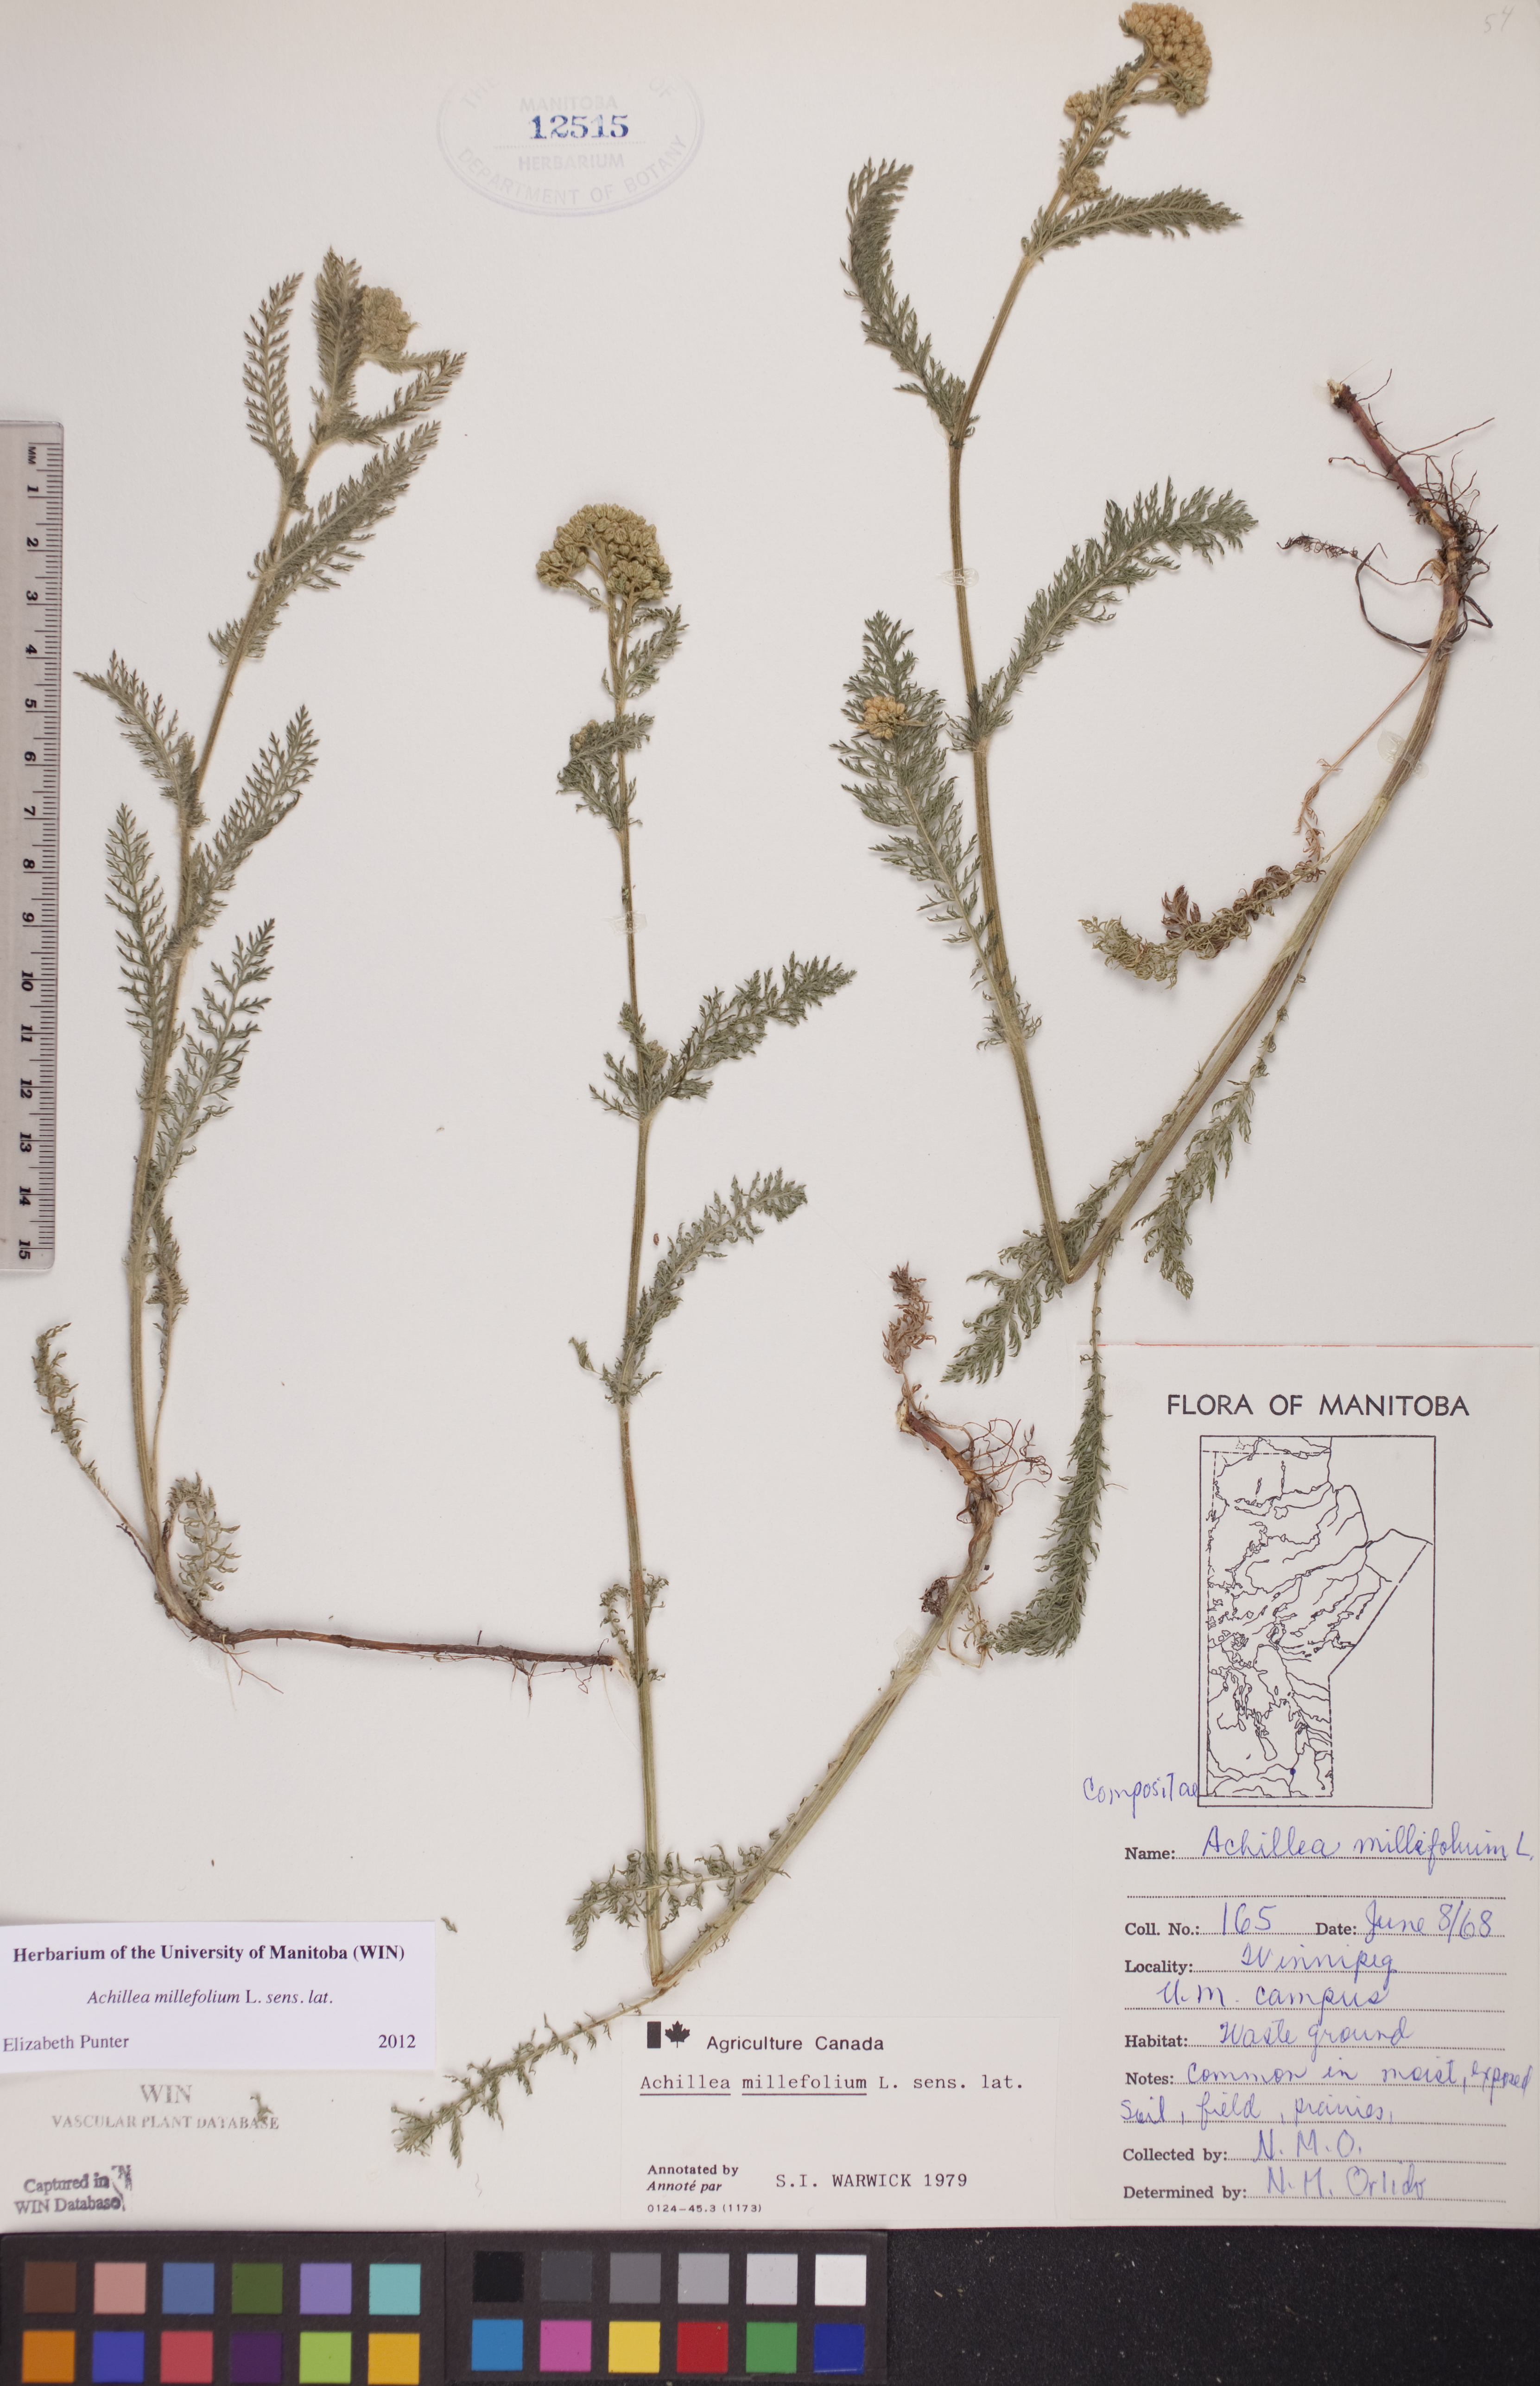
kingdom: Plantae
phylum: Tracheophyta
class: Magnoliopsida
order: Asterales
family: Asteraceae
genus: Achillea
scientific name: Achillea millefolium
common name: Yarrow
